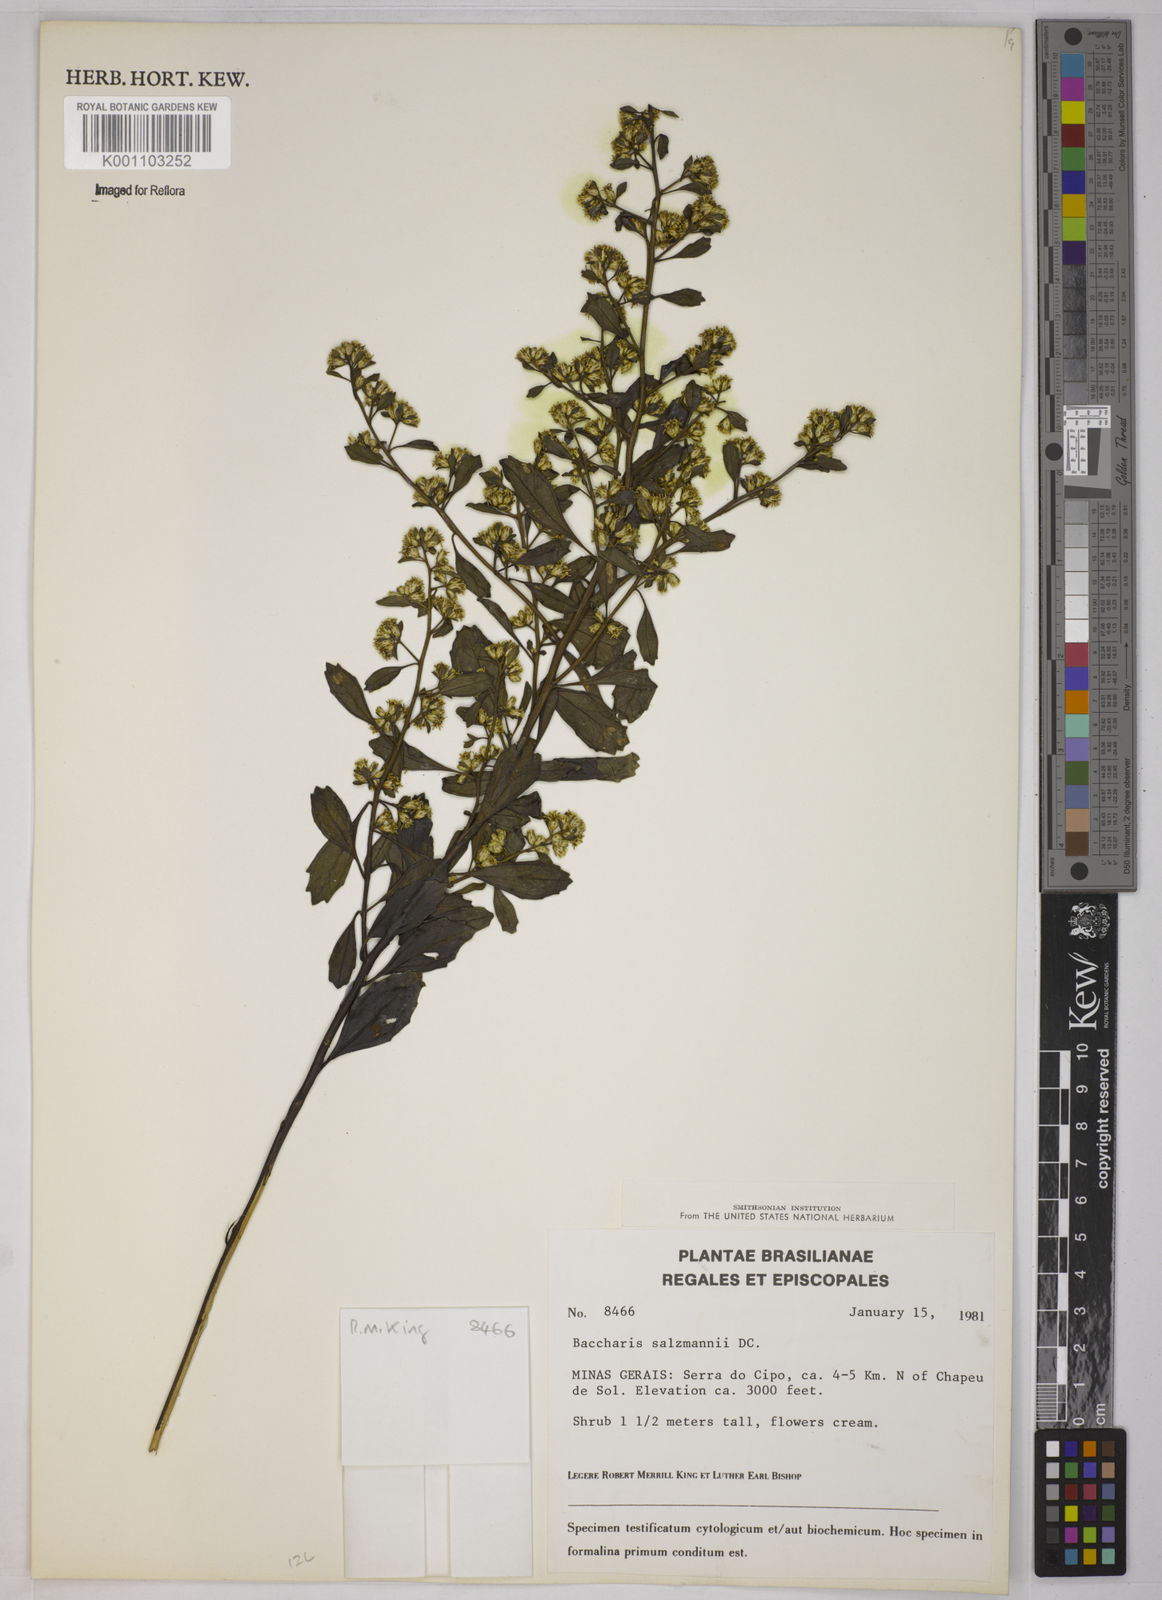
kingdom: Plantae
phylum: Tracheophyta
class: Magnoliopsida
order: Asterales
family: Asteraceae
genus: Baccharis
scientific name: Baccharis retusa
